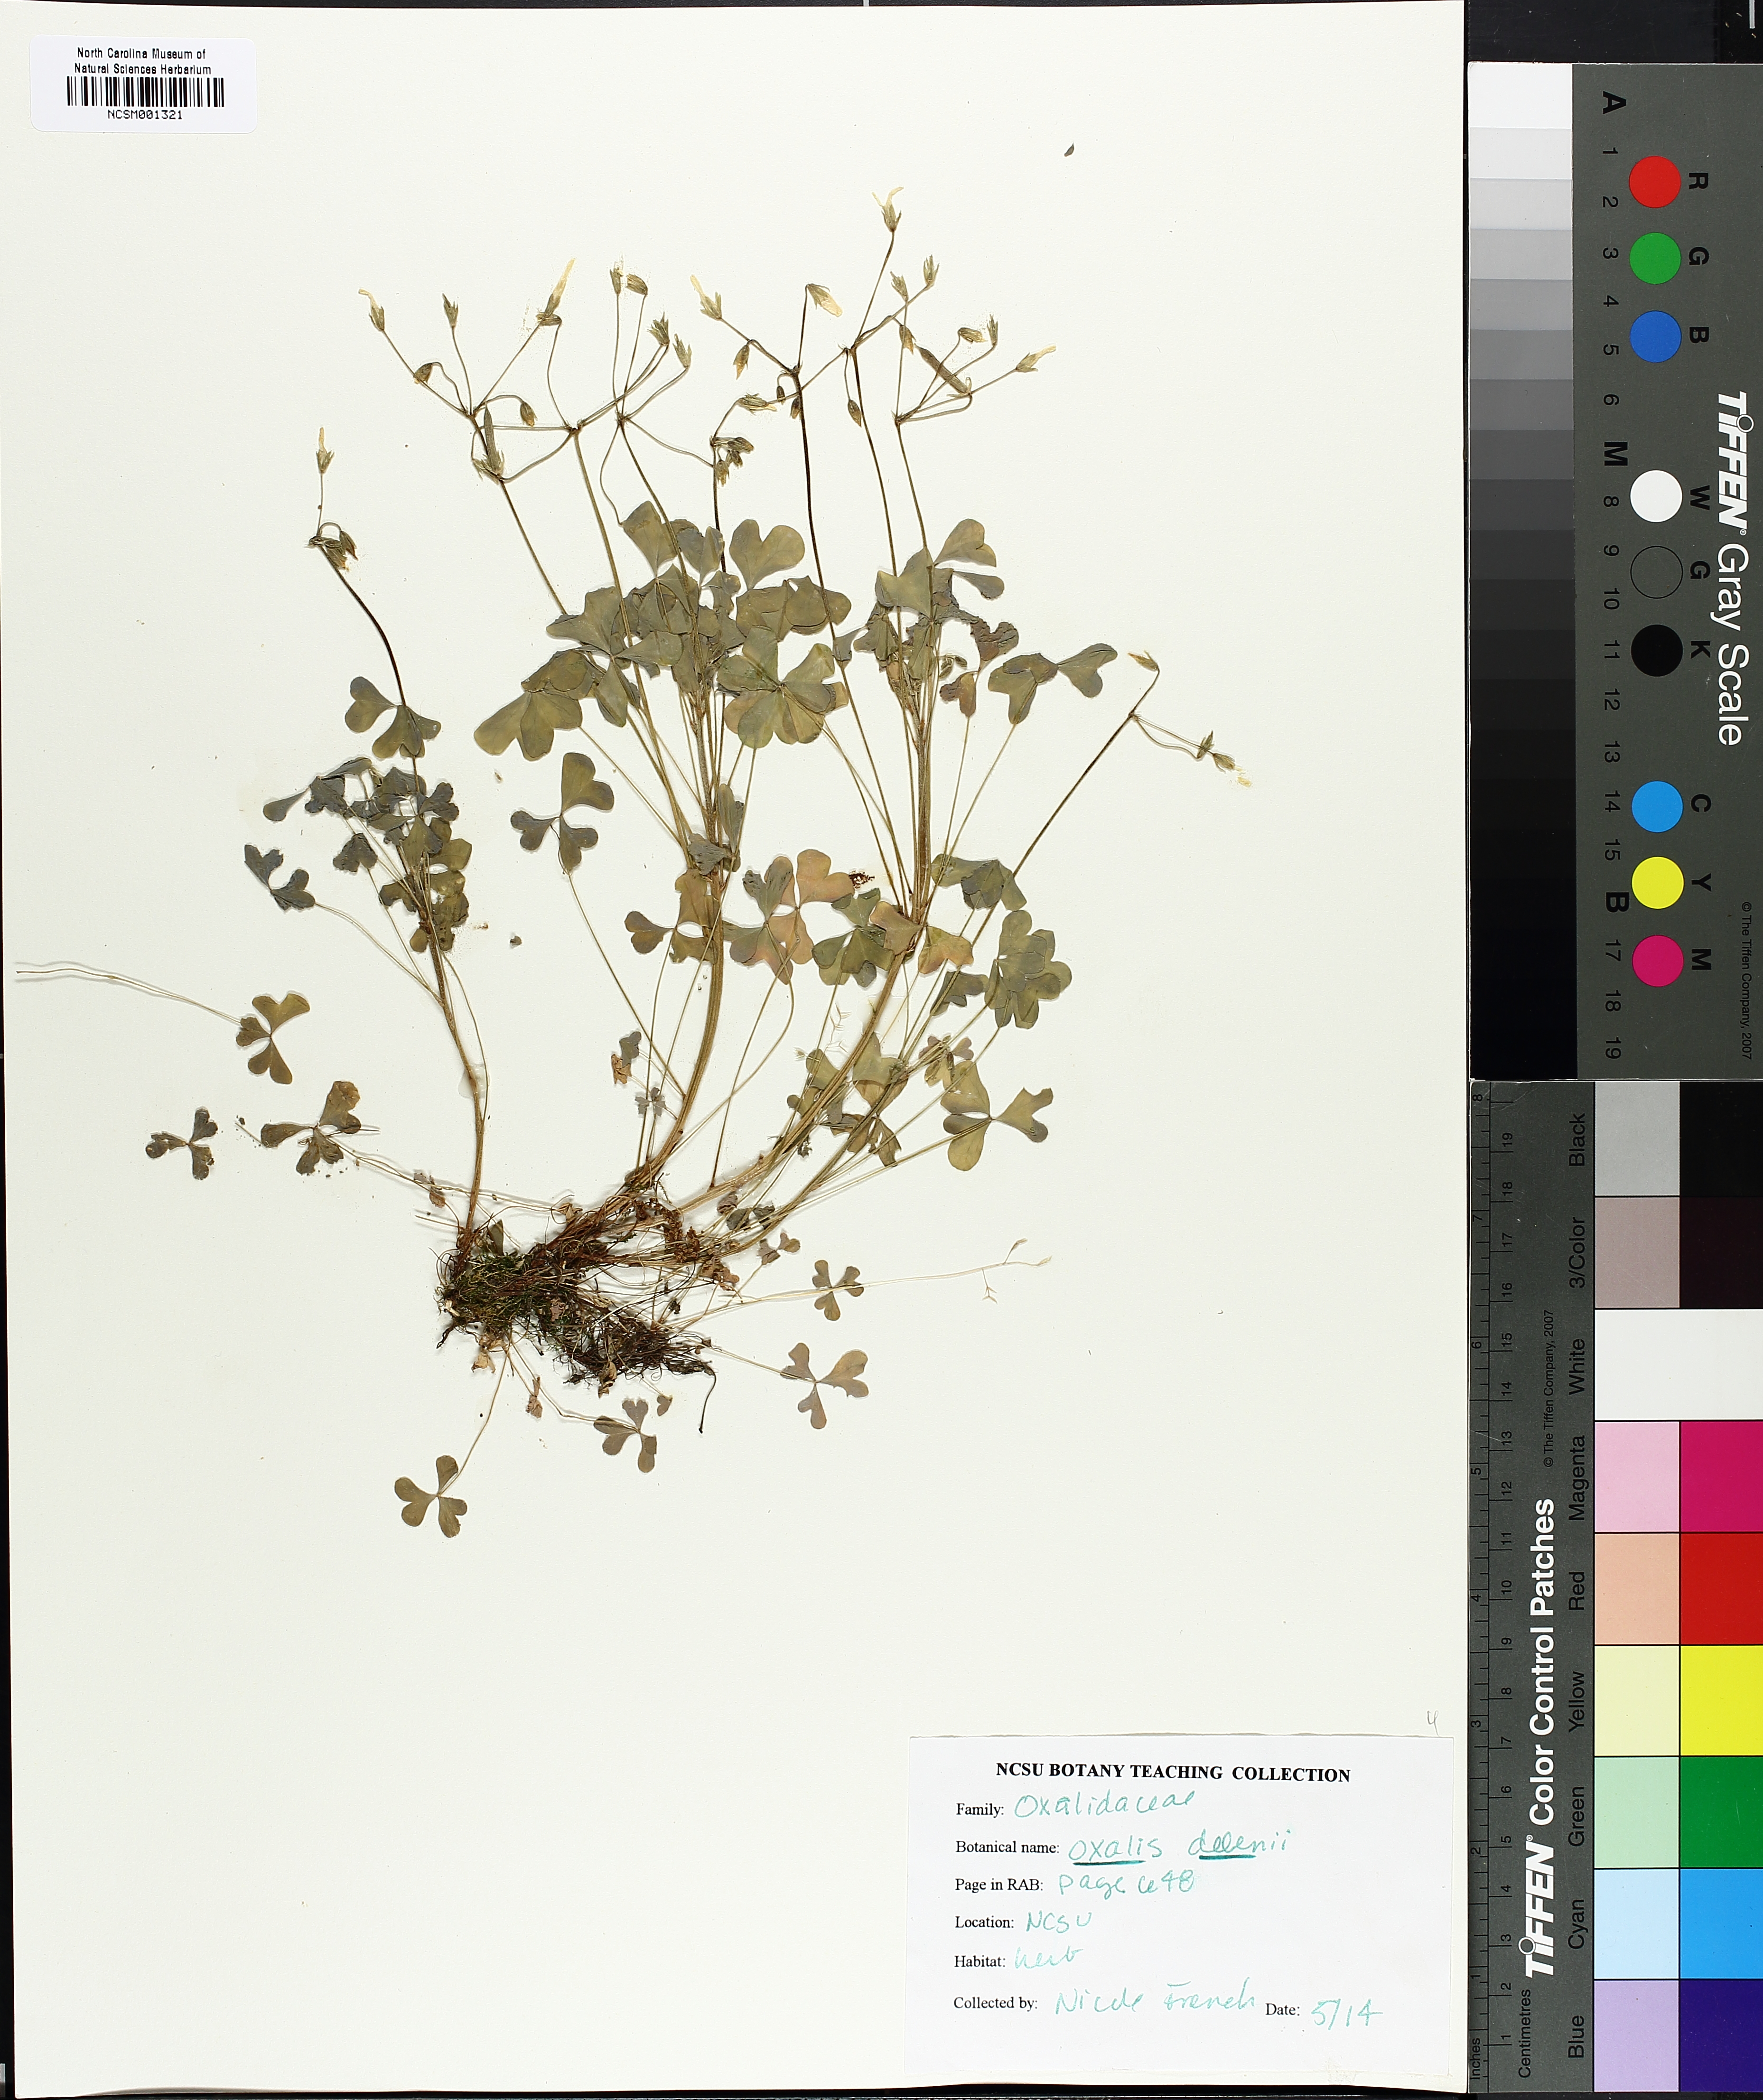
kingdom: Plantae
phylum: Tracheophyta
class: Magnoliopsida
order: Oxalidales
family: Oxalidaceae
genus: Oxalis
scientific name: Oxalis dillenii
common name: Sussex yellow-sorrel
